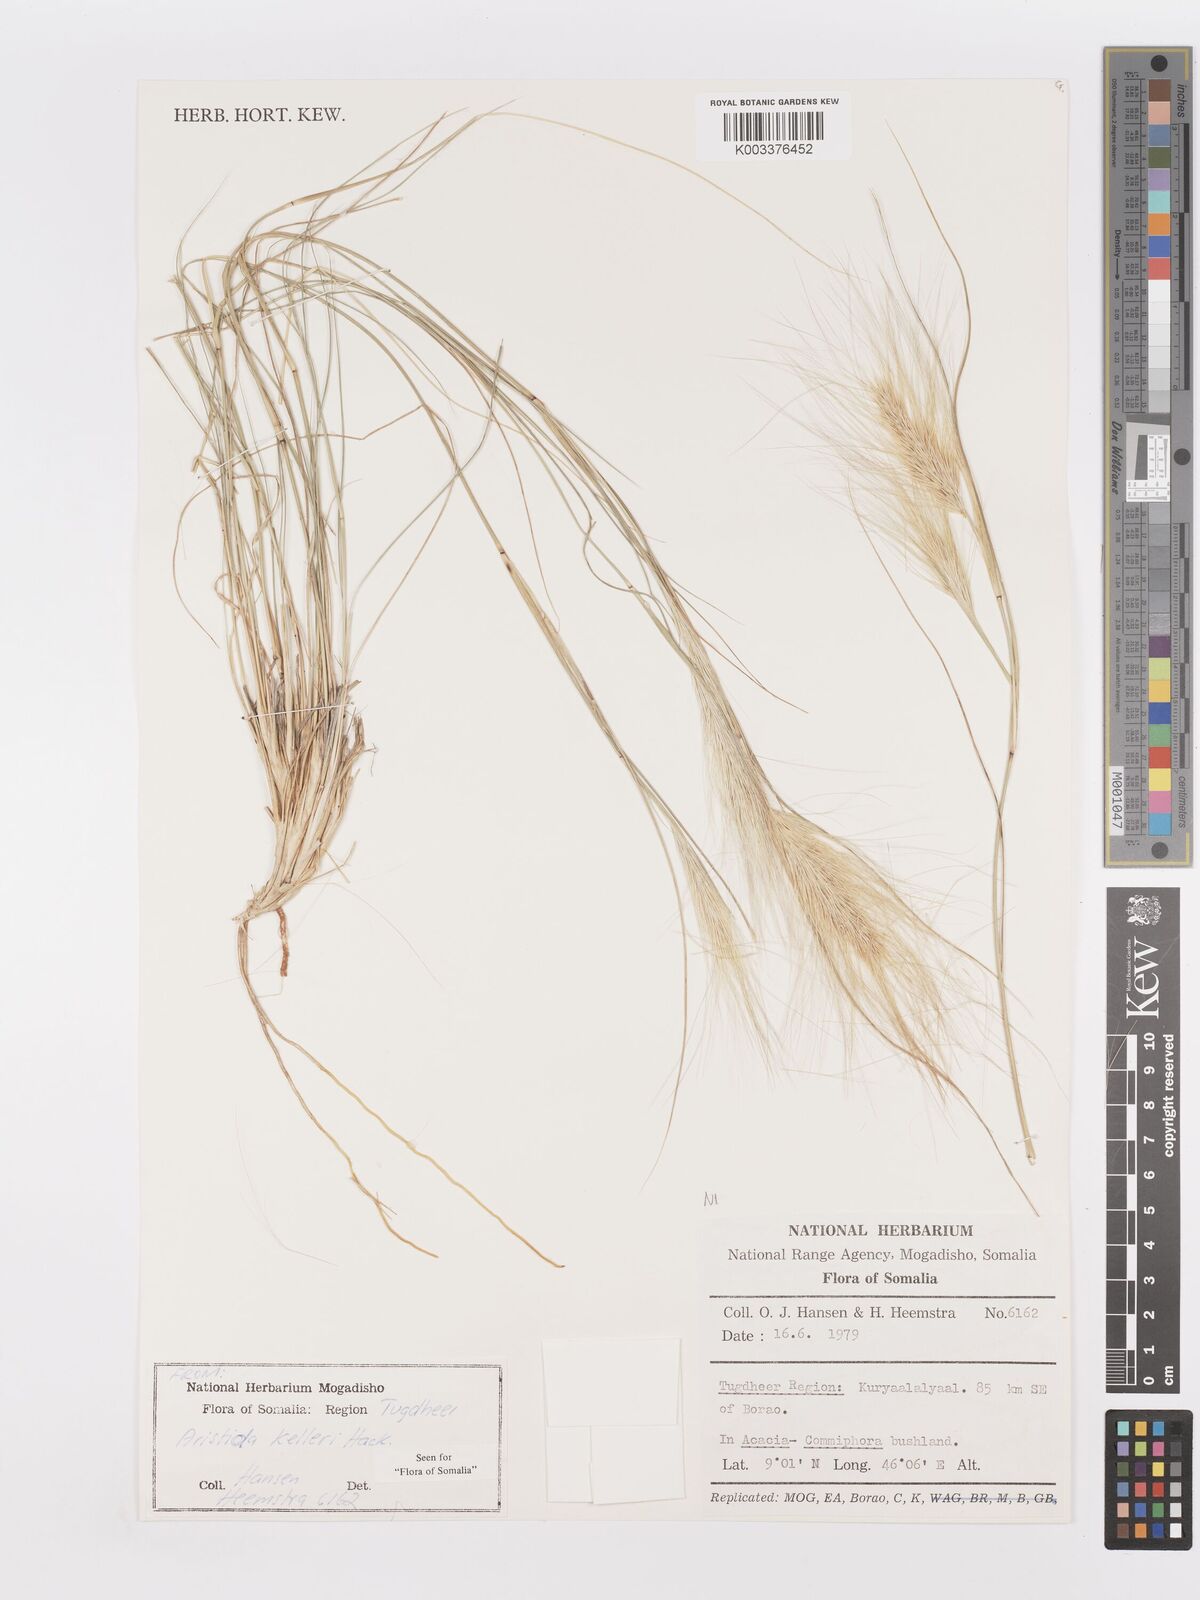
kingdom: Plantae
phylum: Tracheophyta
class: Liliopsida
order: Poales
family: Poaceae
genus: Aristida
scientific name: Aristida kelleri
